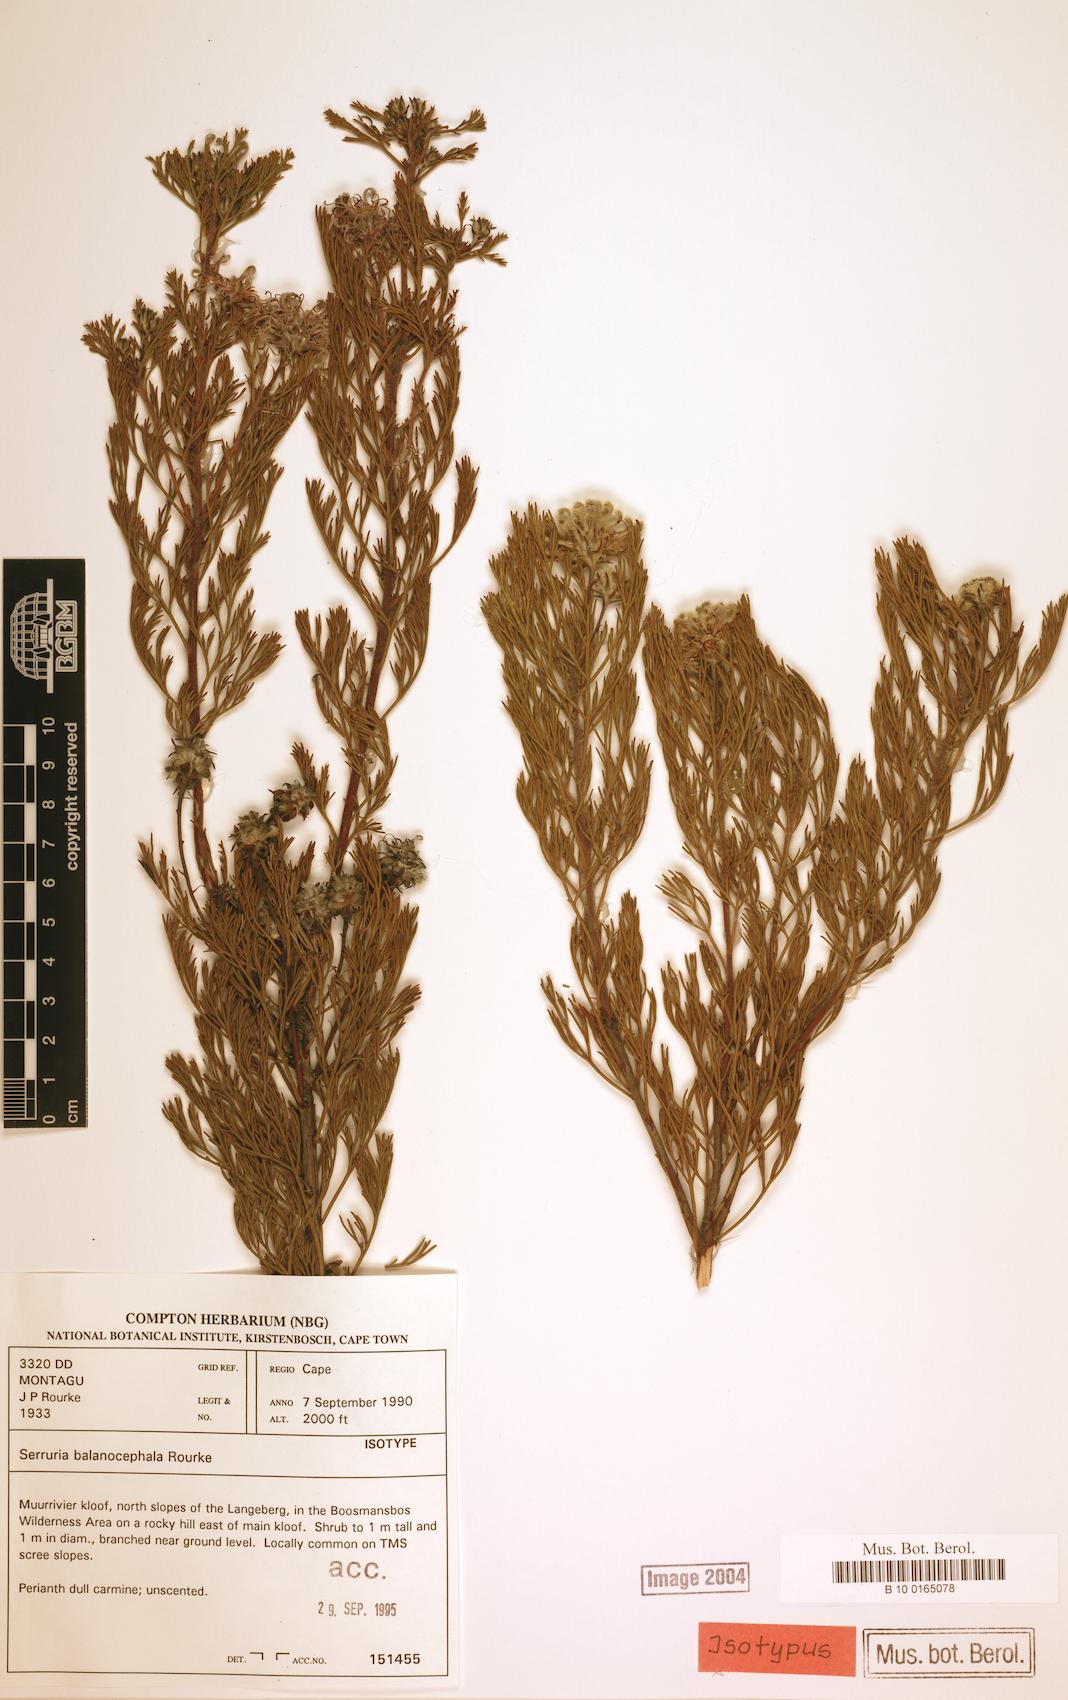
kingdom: Plantae
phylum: Tracheophyta
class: Magnoliopsida
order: Proteales
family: Proteaceae
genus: Serruria
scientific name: Serruria balanocephala
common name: Acorn spiderhead
